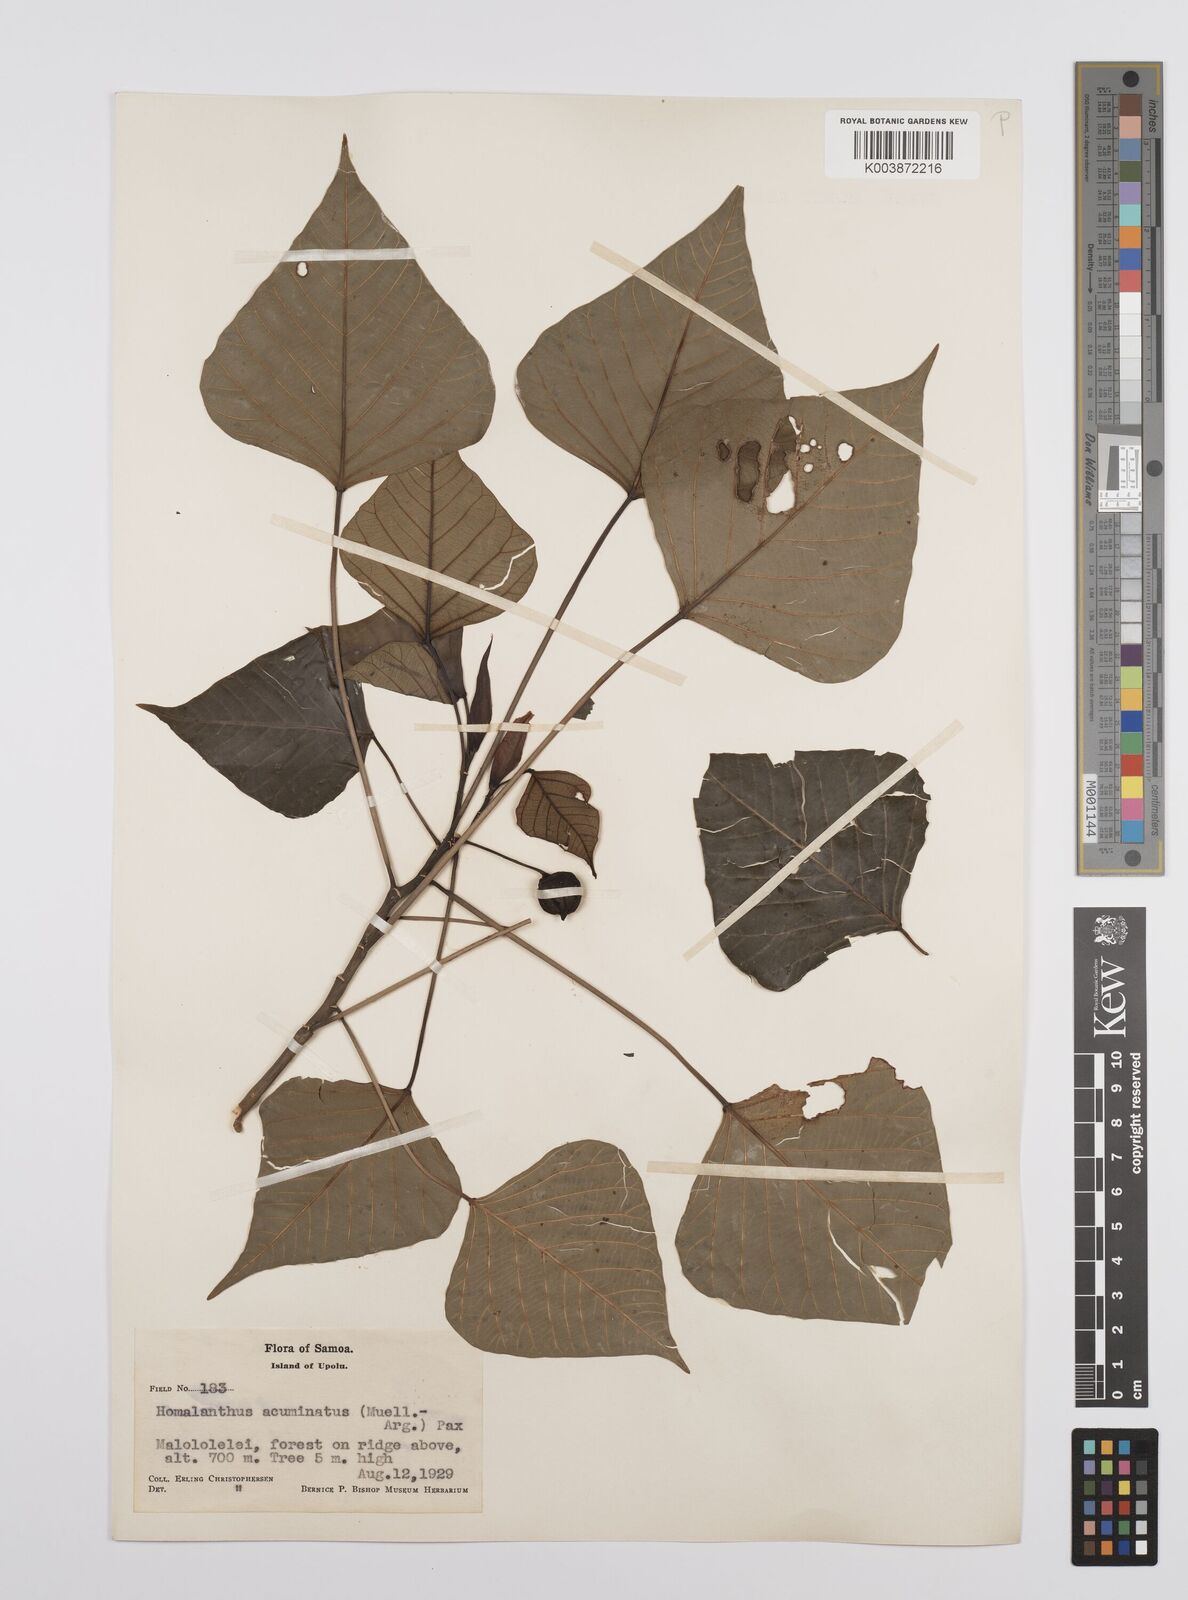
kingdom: Plantae
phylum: Tracheophyta
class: Magnoliopsida
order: Malpighiales
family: Euphorbiaceae
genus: Homalanthus
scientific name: Homalanthus acuminatus
